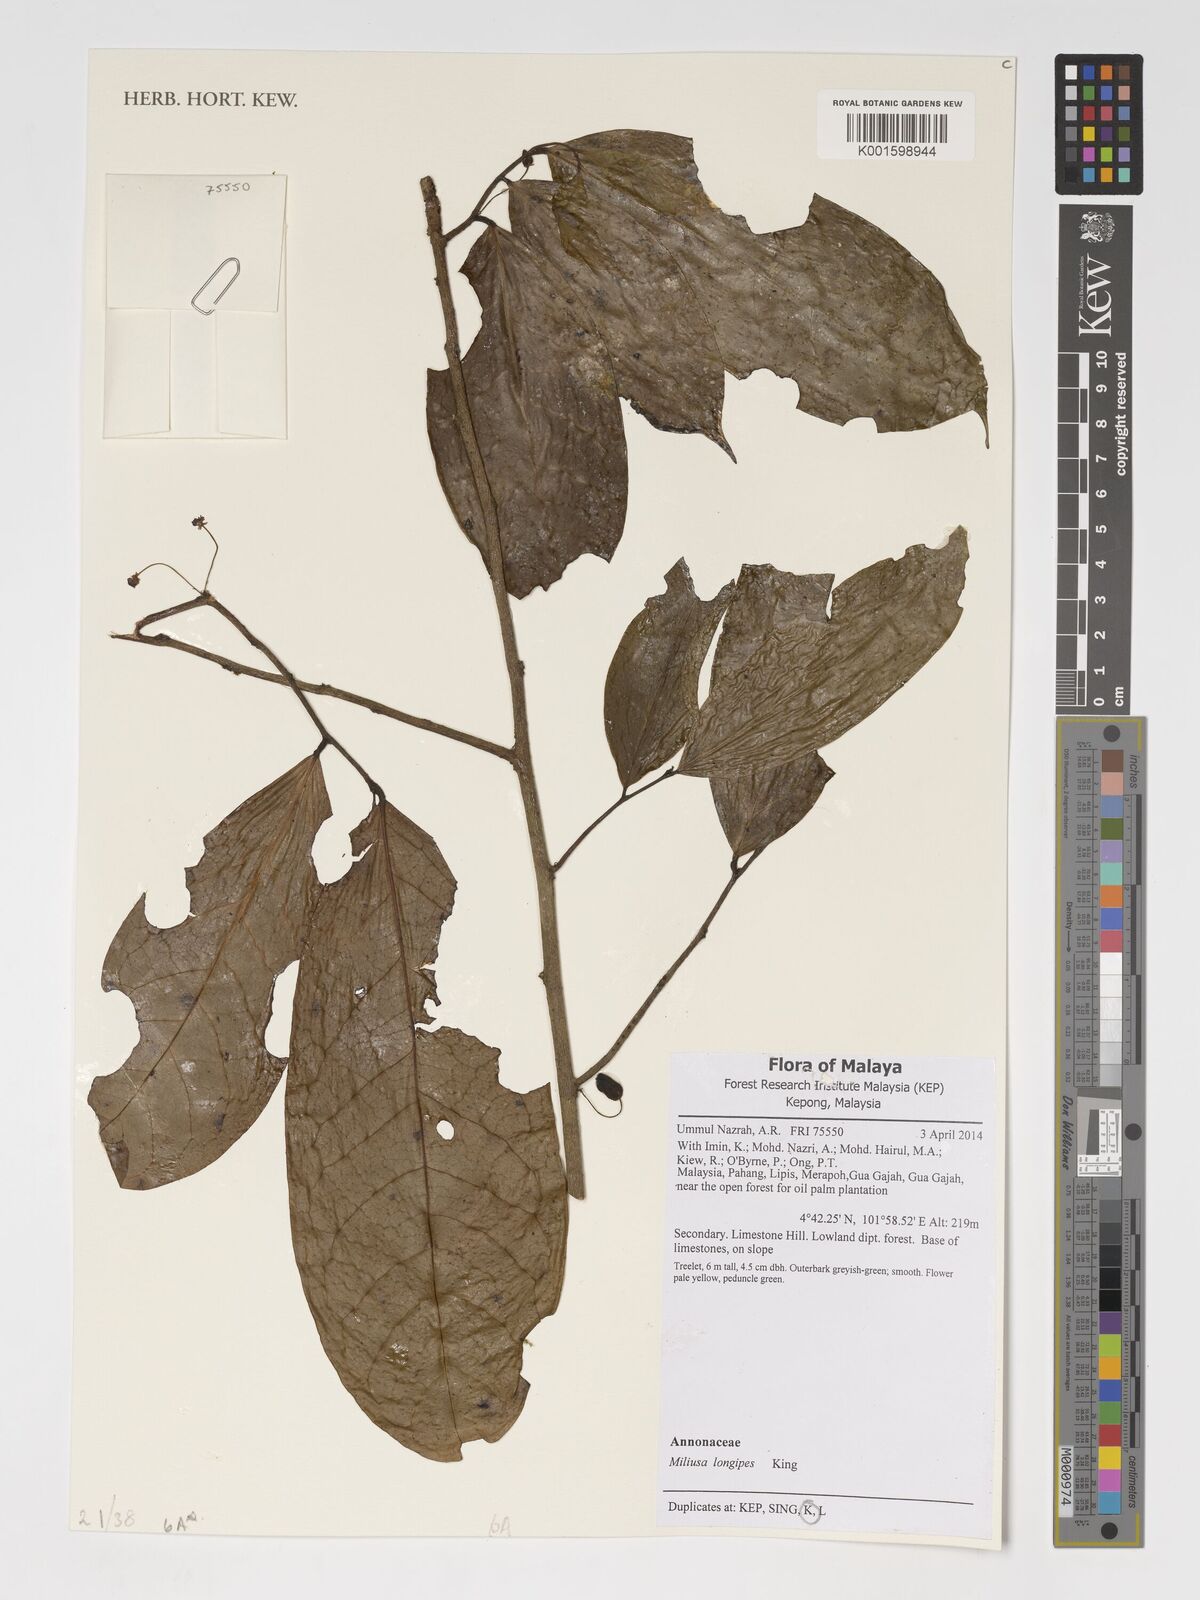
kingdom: Plantae
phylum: Tracheophyta
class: Magnoliopsida
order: Magnoliales
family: Annonaceae
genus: Miliusa
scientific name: Miliusa longipes
